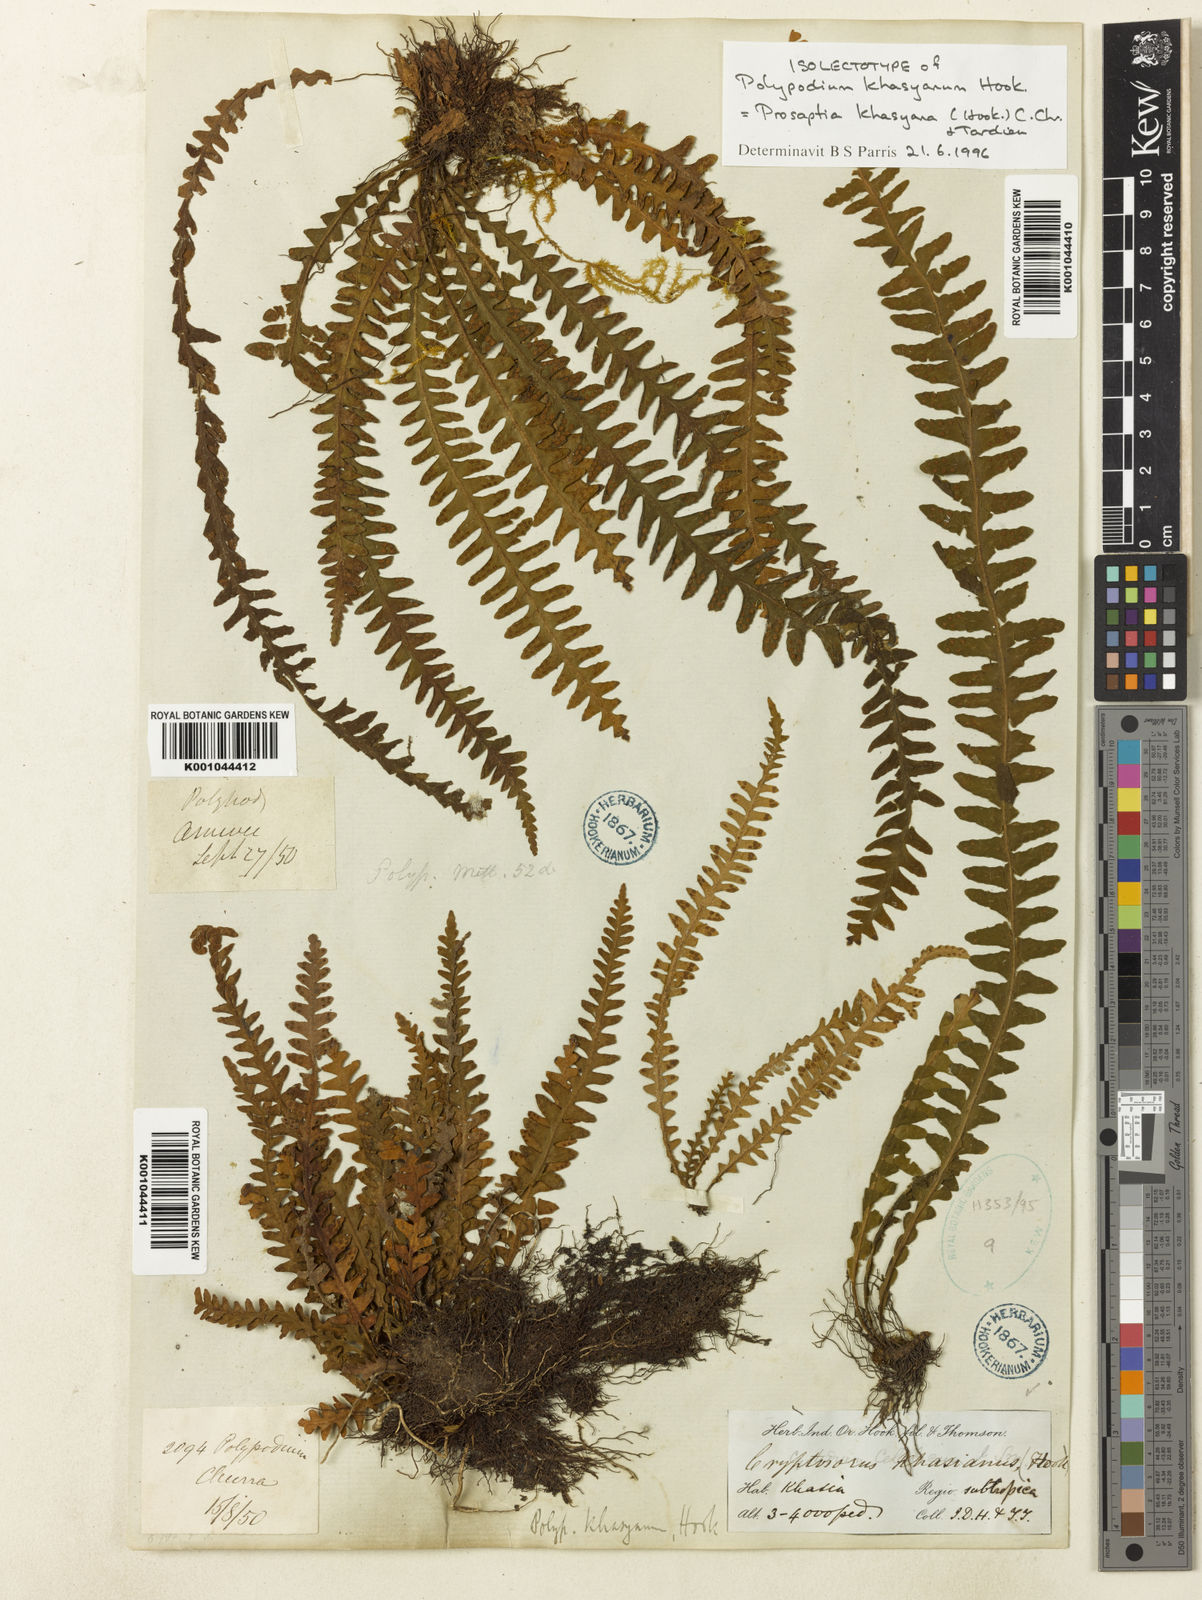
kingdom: Plantae
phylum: Tracheophyta
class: Polypodiopsida
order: Polypodiales
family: Polypodiaceae
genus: Polypodium
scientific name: Polypodium khasyanum
